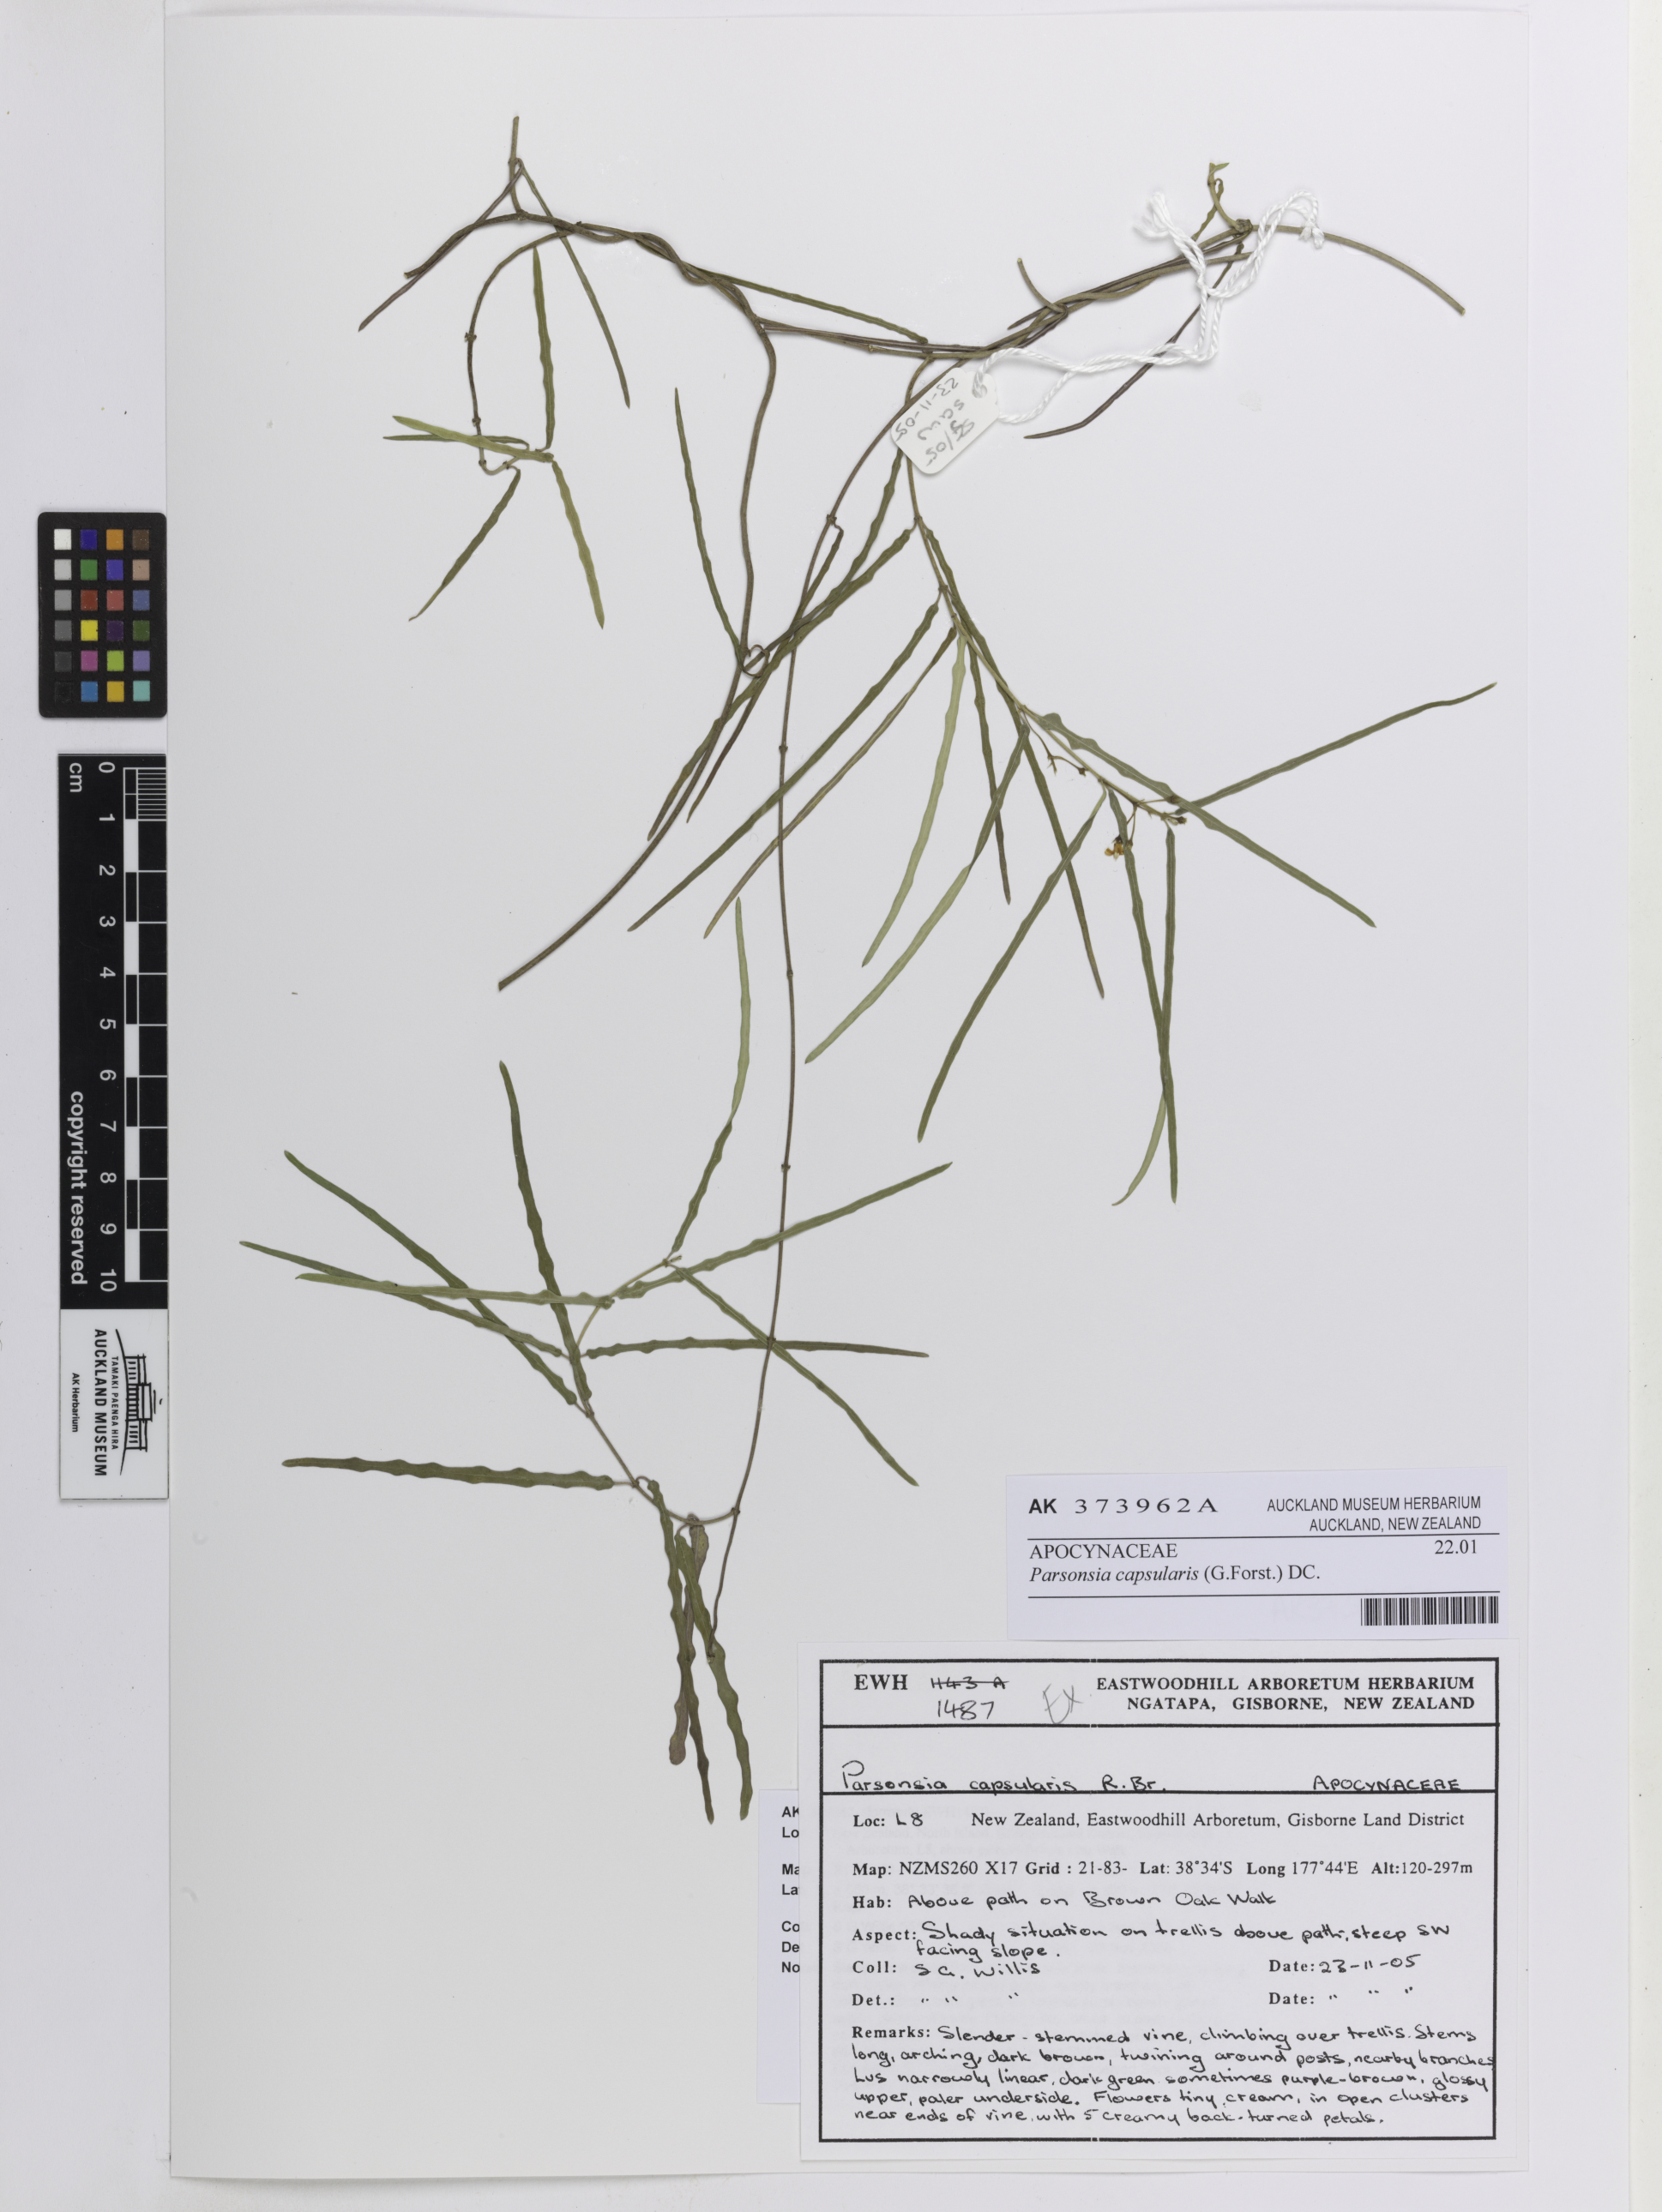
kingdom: Plantae
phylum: Tracheophyta
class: Magnoliopsida
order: Gentianales
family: Apocynaceae
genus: Parsonsia
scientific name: Parsonsia capsularis
